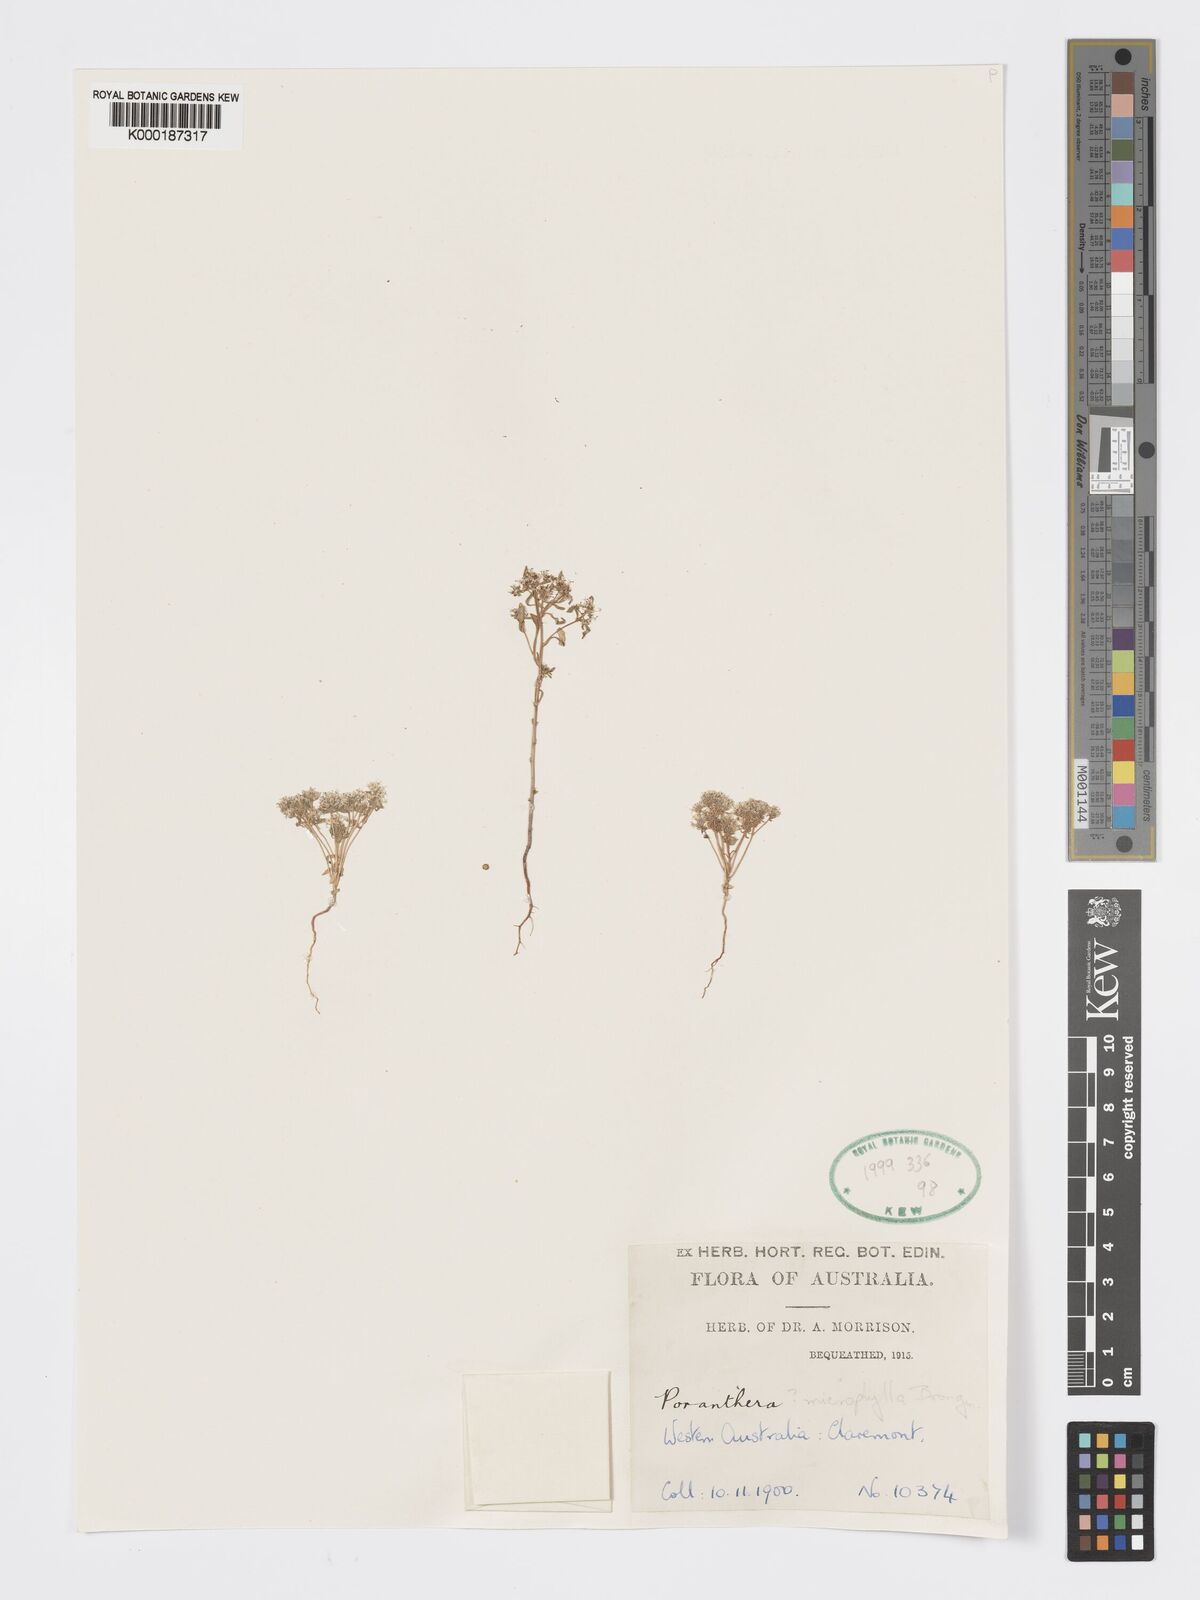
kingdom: Plantae
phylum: Tracheophyta
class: Magnoliopsida
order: Malpighiales
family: Phyllanthaceae
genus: Poranthera
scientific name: Poranthera microphylla
